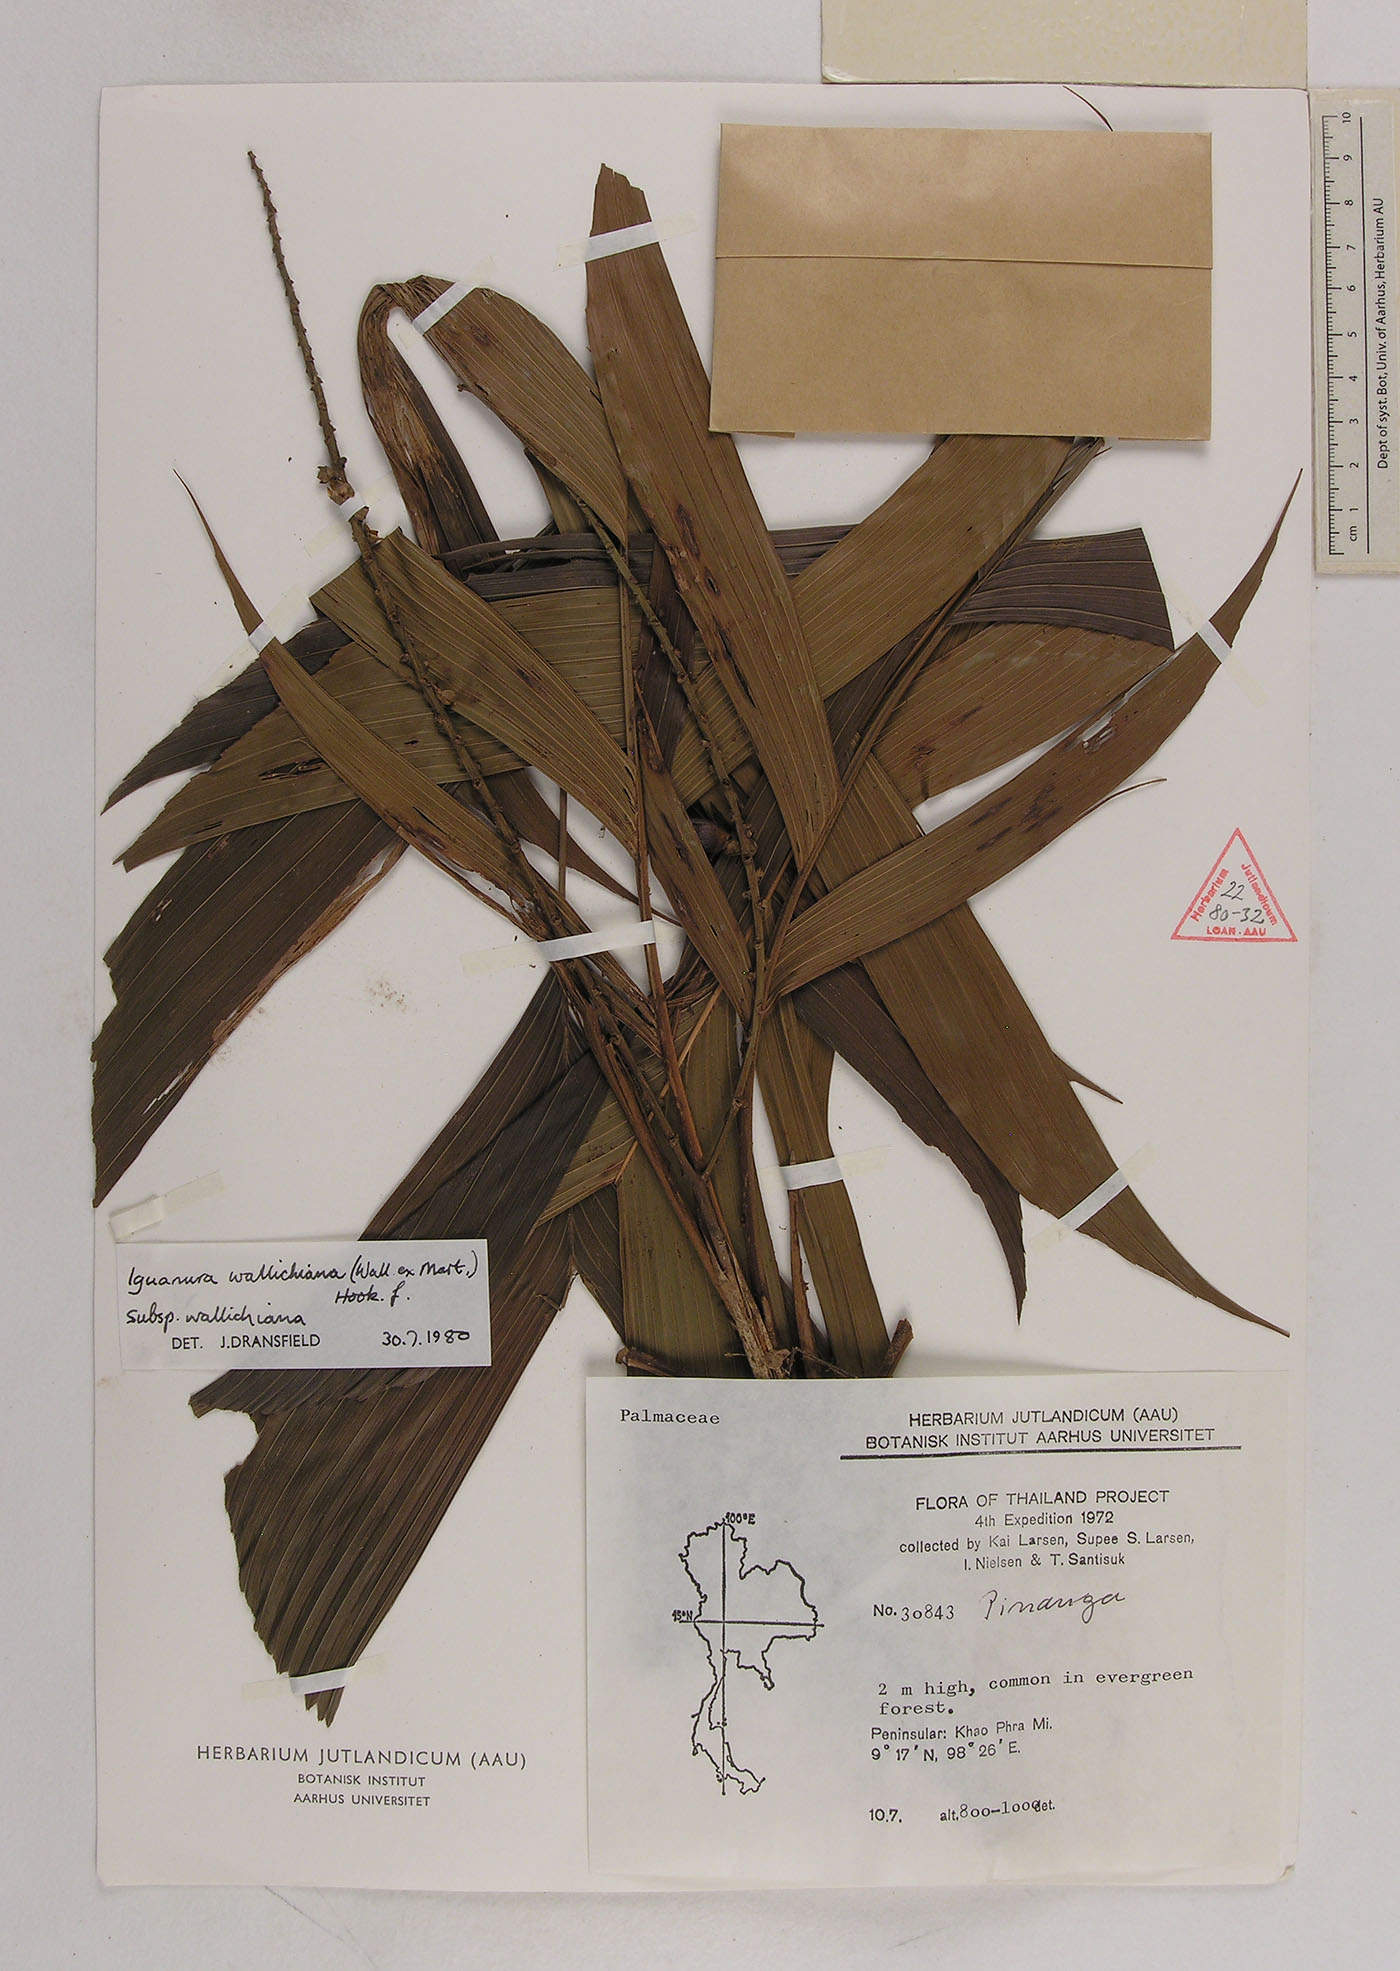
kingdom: Plantae
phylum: Tracheophyta
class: Liliopsida
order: Arecales
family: Arecaceae
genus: Iguanura
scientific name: Iguanura wallichiana
